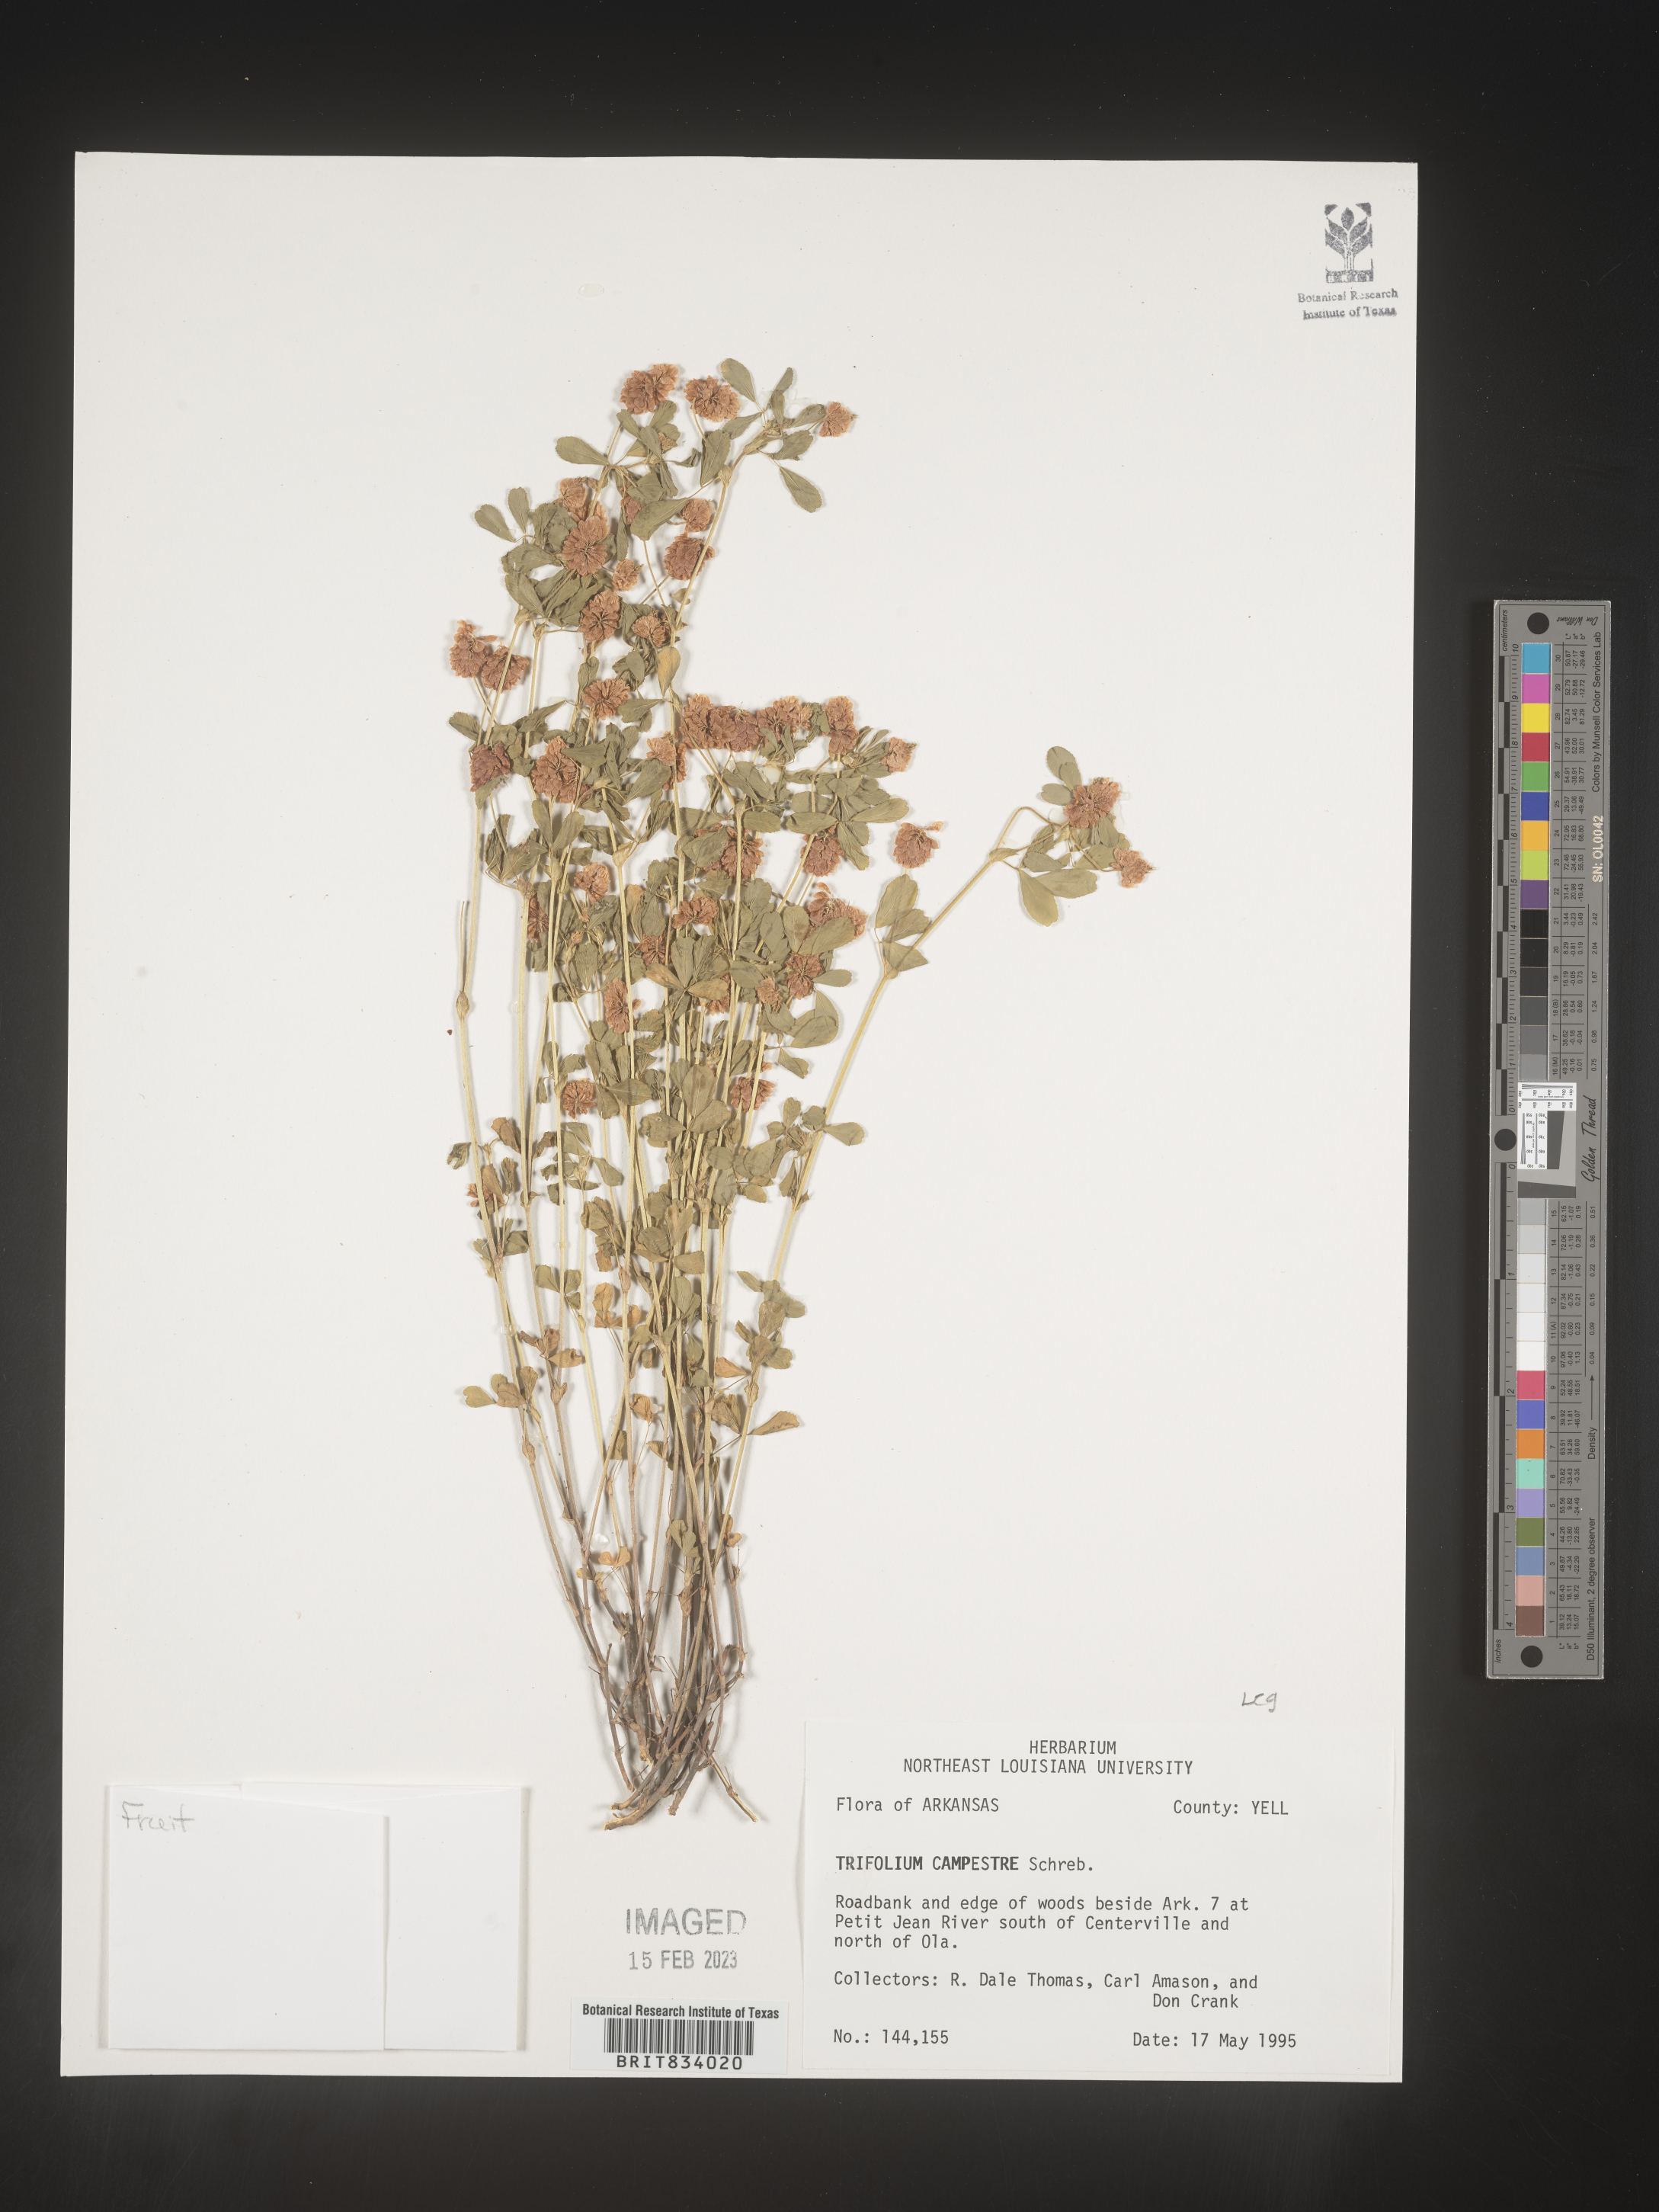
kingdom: Plantae
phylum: Tracheophyta
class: Magnoliopsida
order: Fabales
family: Fabaceae
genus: Trifolium
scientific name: Trifolium campestre
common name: Field clover
